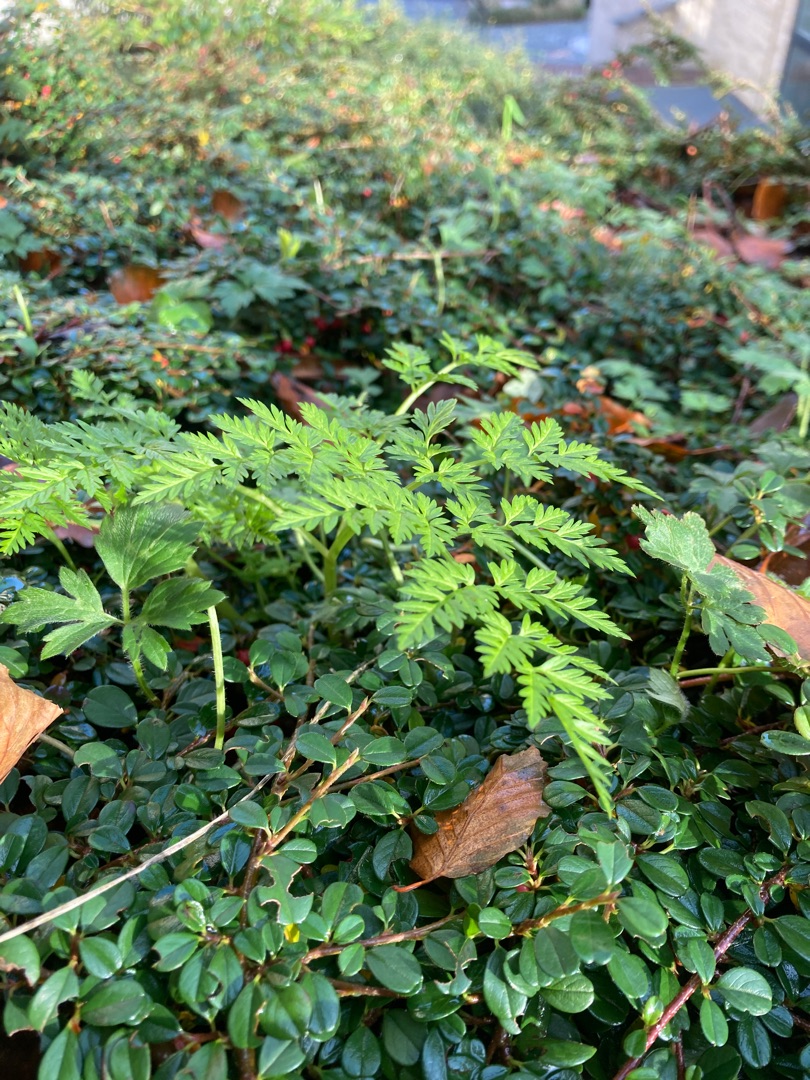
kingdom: Plantae
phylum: Tracheophyta
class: Magnoliopsida
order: Apiales
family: Apiaceae
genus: Anthriscus
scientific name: Anthriscus sylvestris
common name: Vild kørvel
